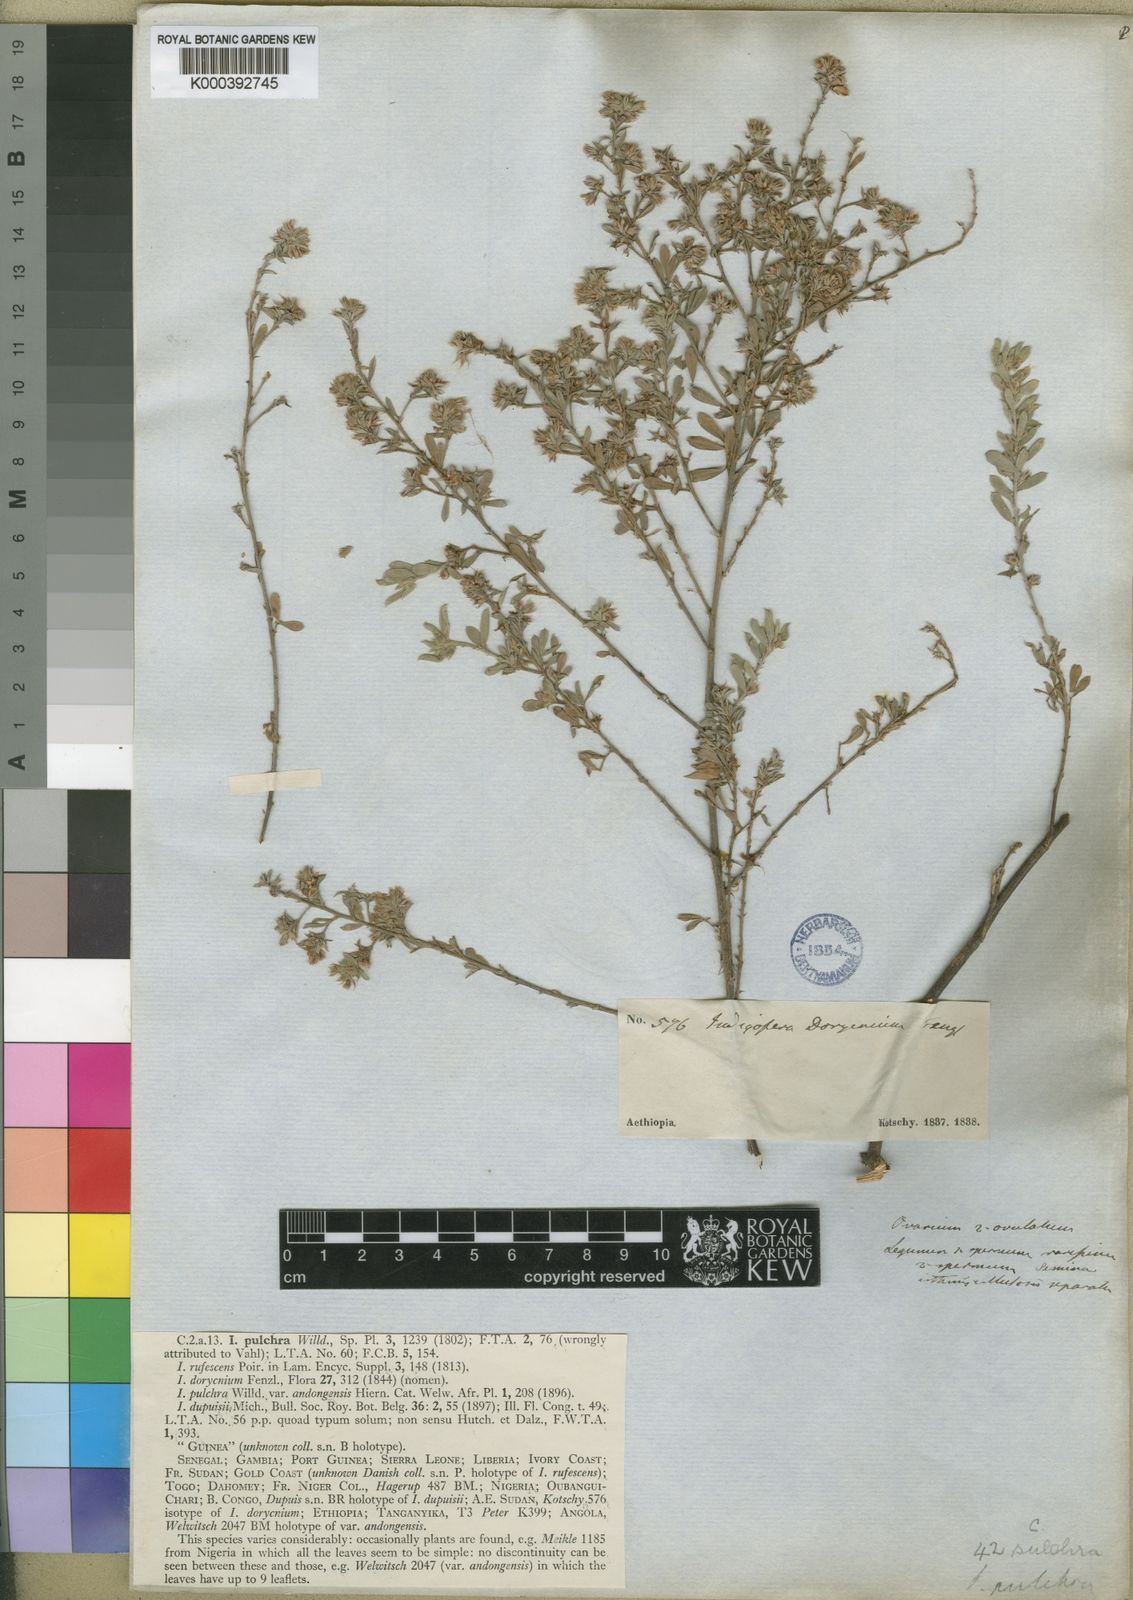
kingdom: Plantae
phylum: Tracheophyta
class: Magnoliopsida
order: Fabales
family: Fabaceae
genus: Indigofera
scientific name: Indigofera pulchra
